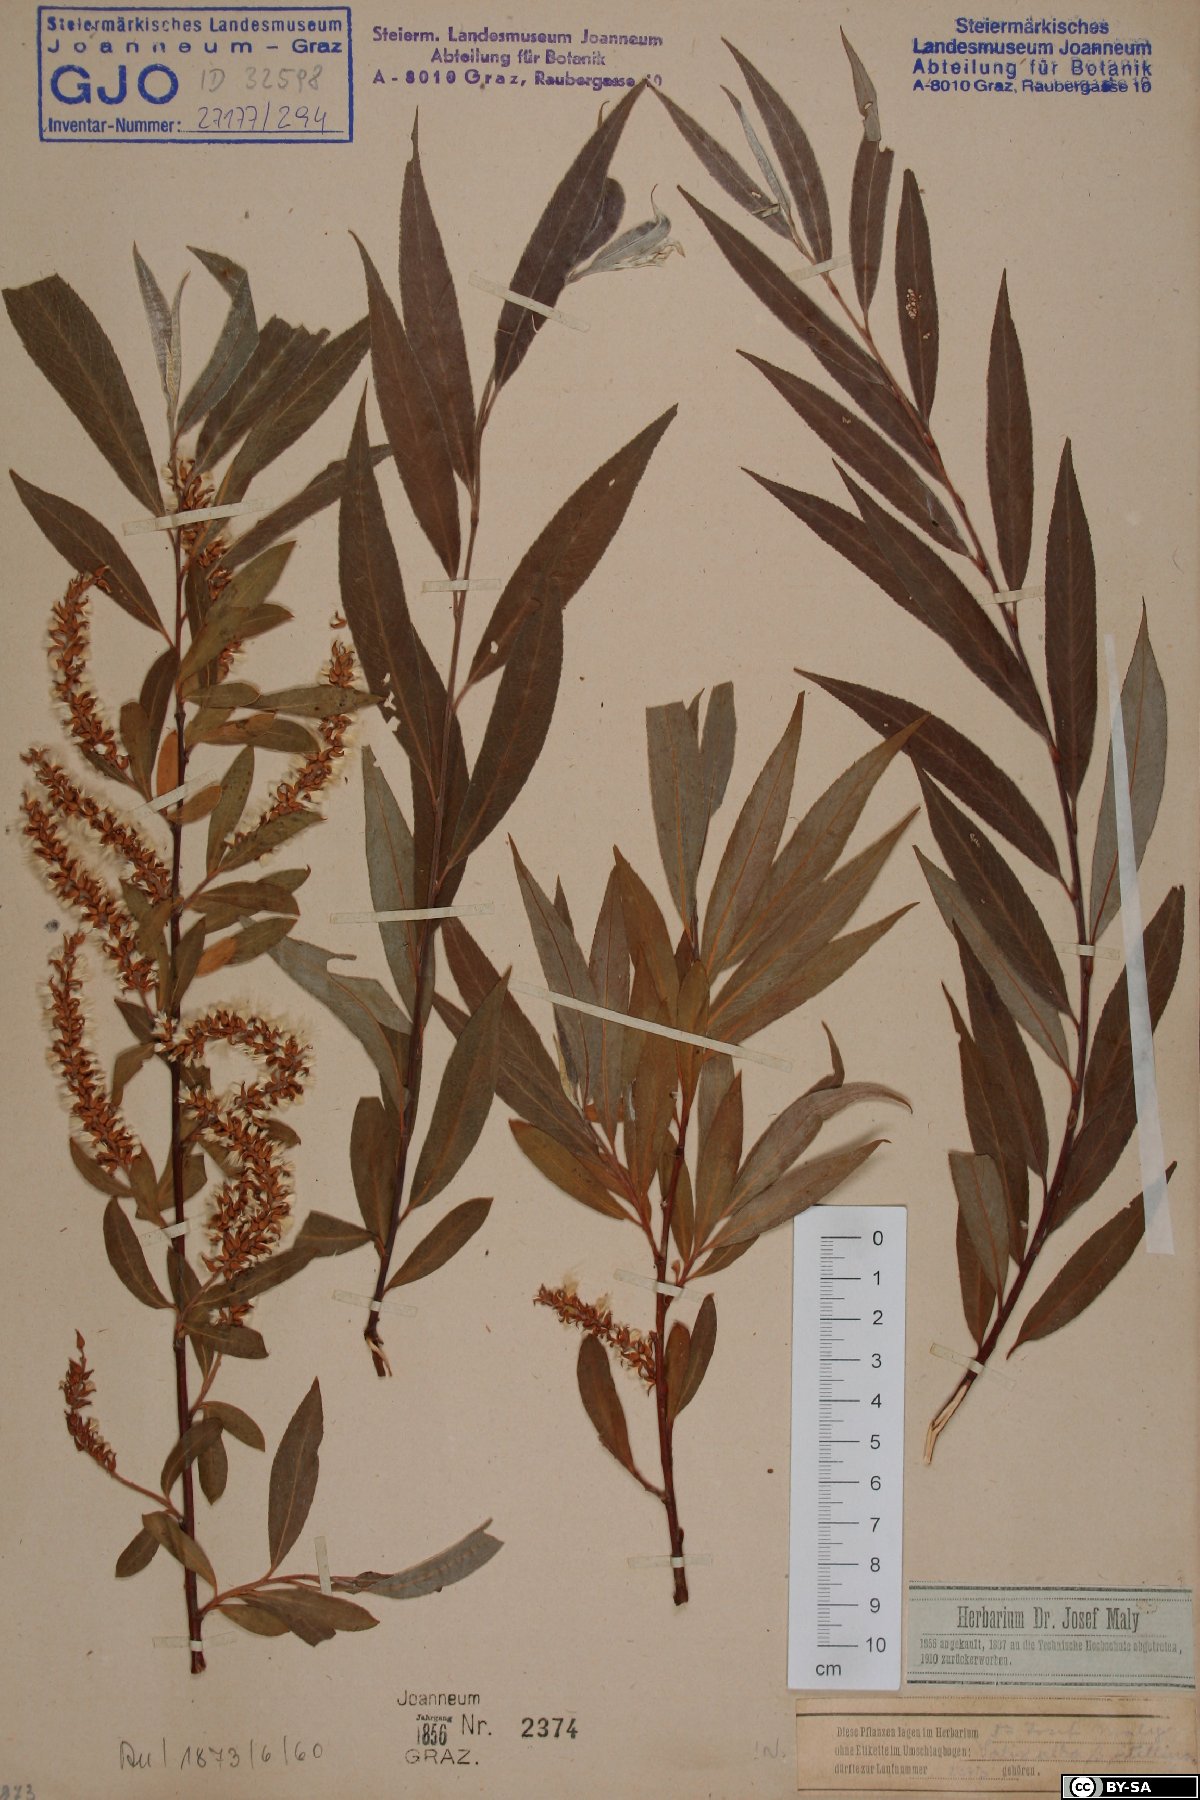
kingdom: Plantae
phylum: Tracheophyta
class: Magnoliopsida
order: Malpighiales
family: Salicaceae
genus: Salix
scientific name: Salix alba
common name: White willow
